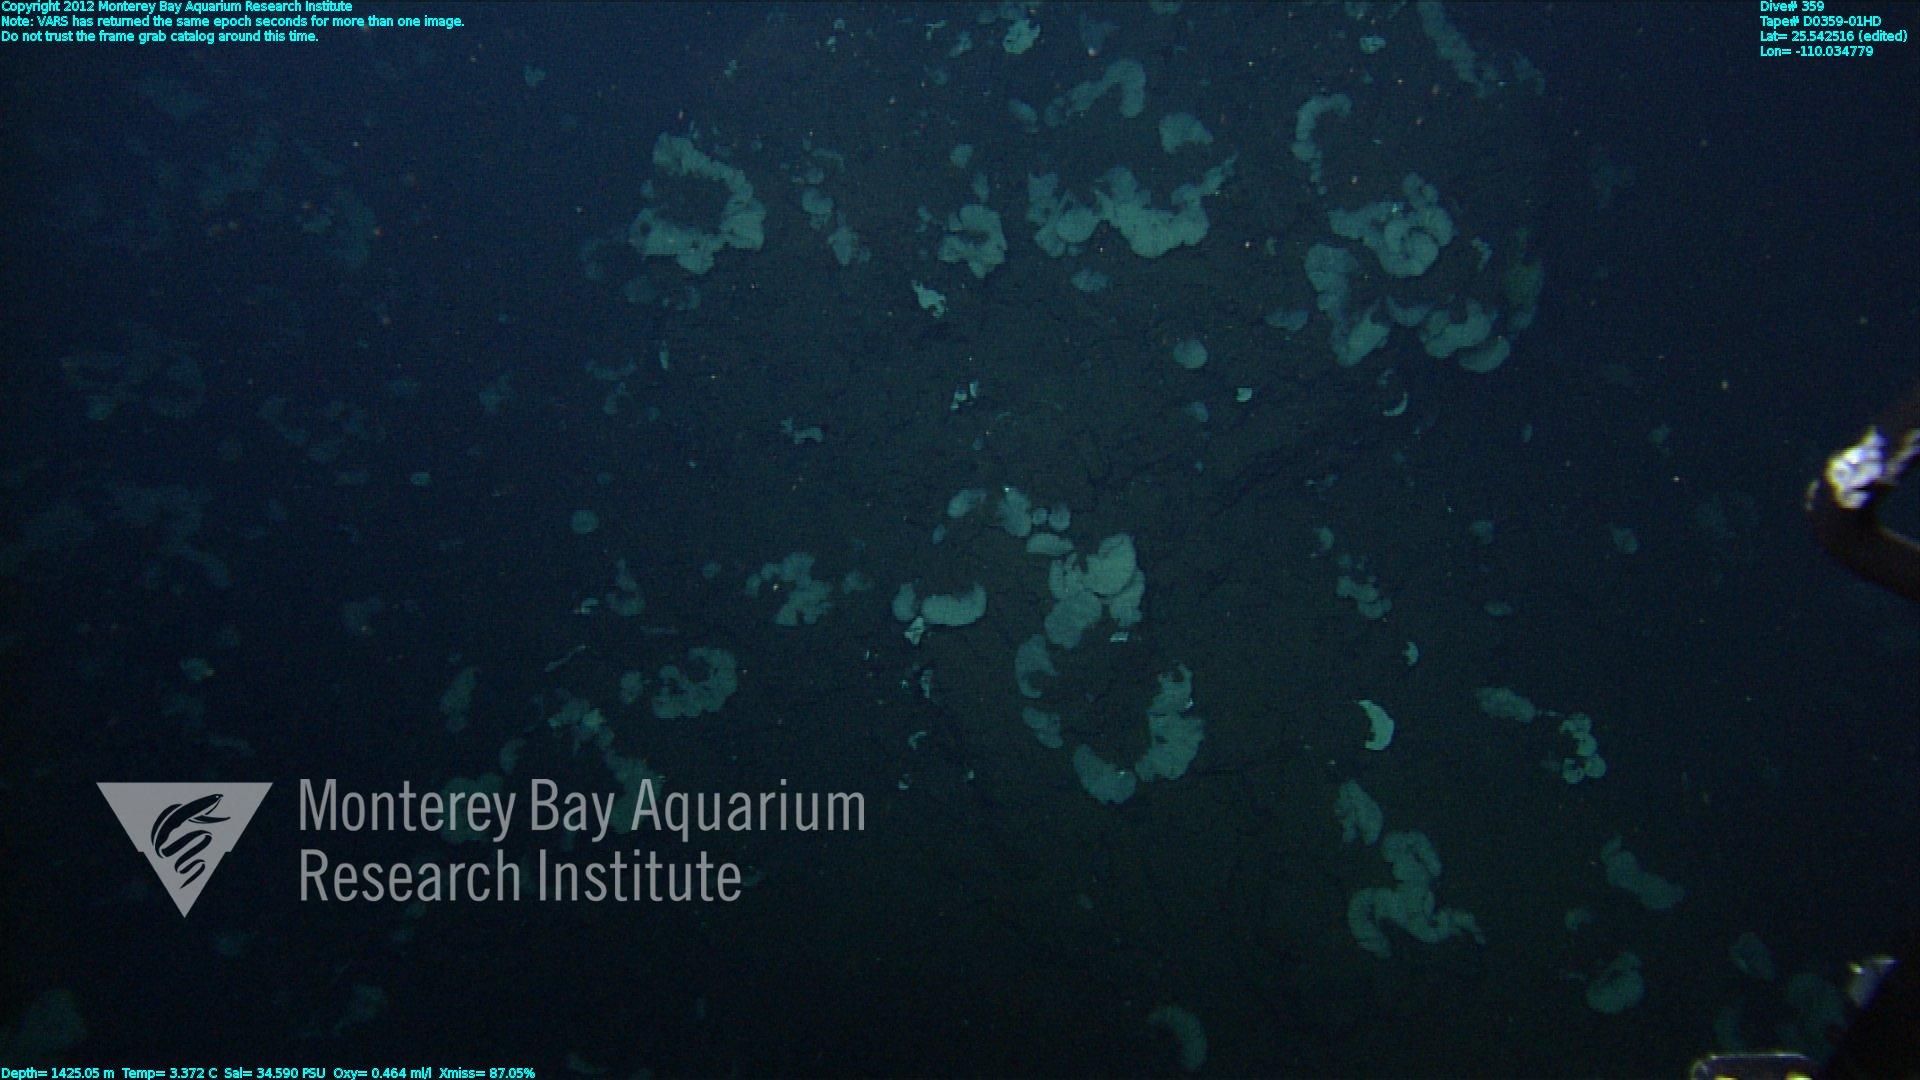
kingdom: Animalia
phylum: Porifera
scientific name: Porifera
